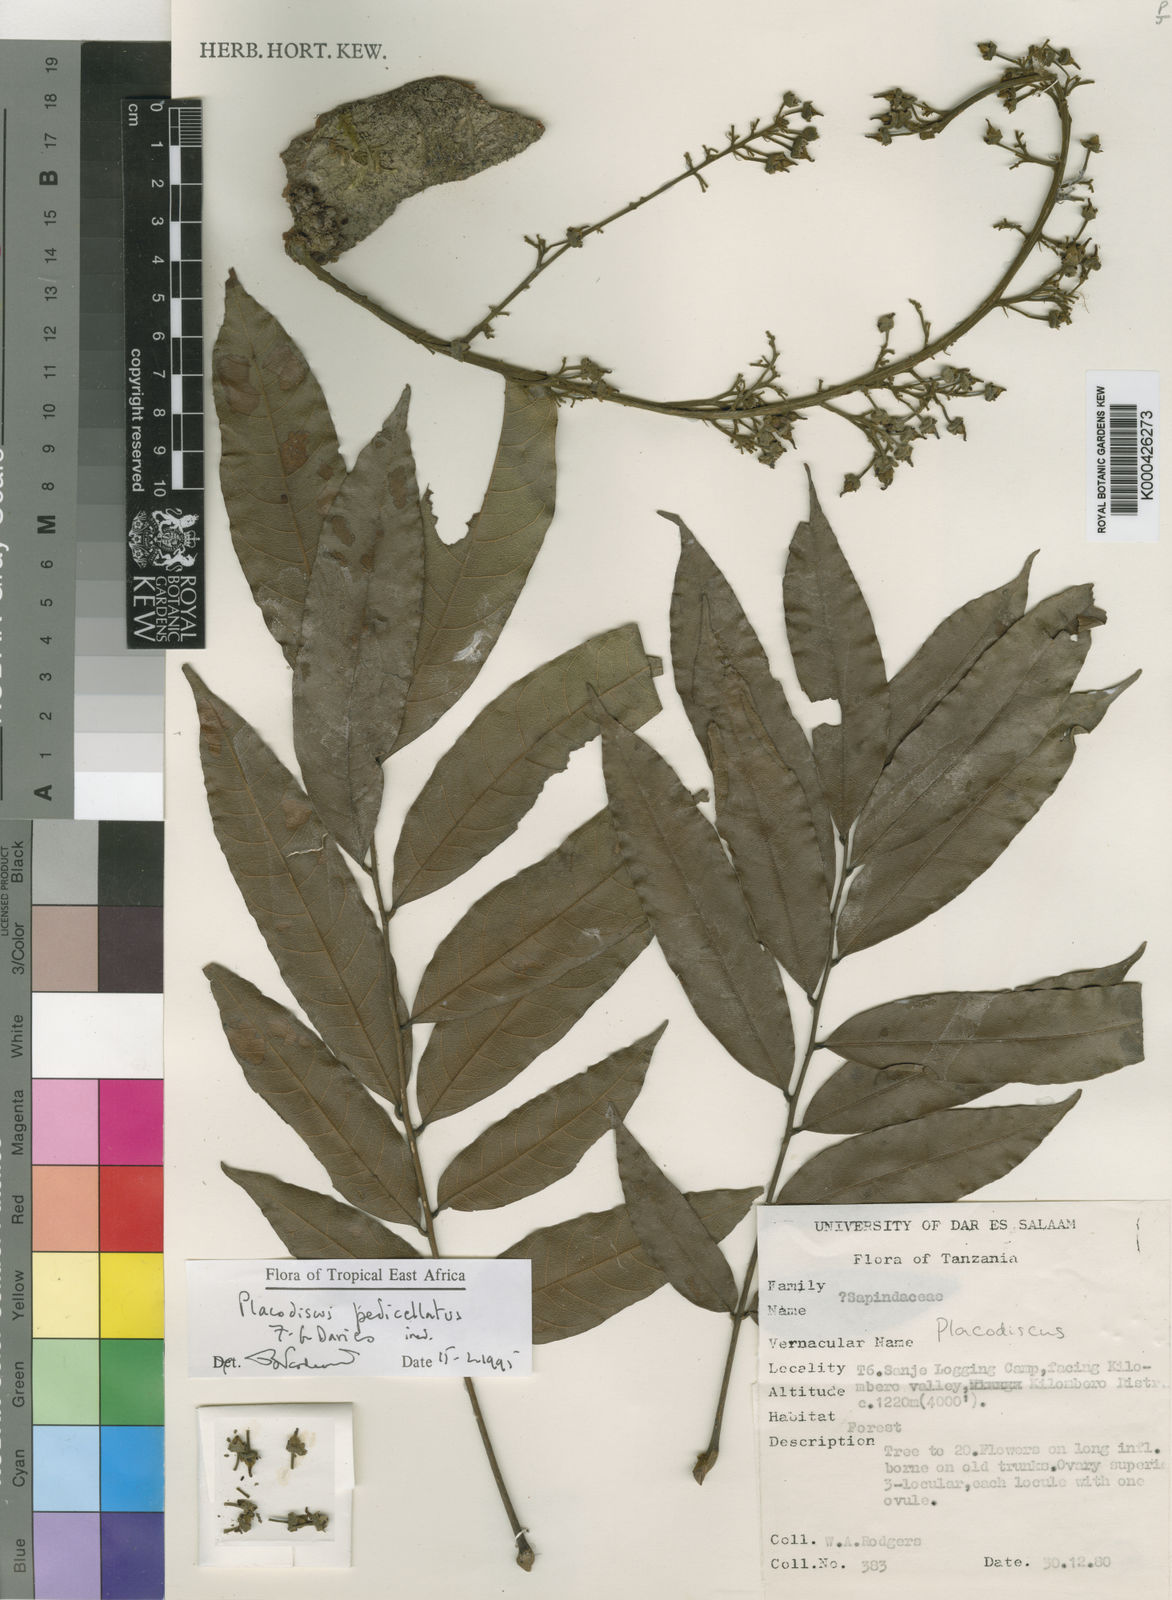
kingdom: Plantae
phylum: Tracheophyta
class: Magnoliopsida
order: Sapindales
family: Sapindaceae
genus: Placodiscus
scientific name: Placodiscus pedicellatus
